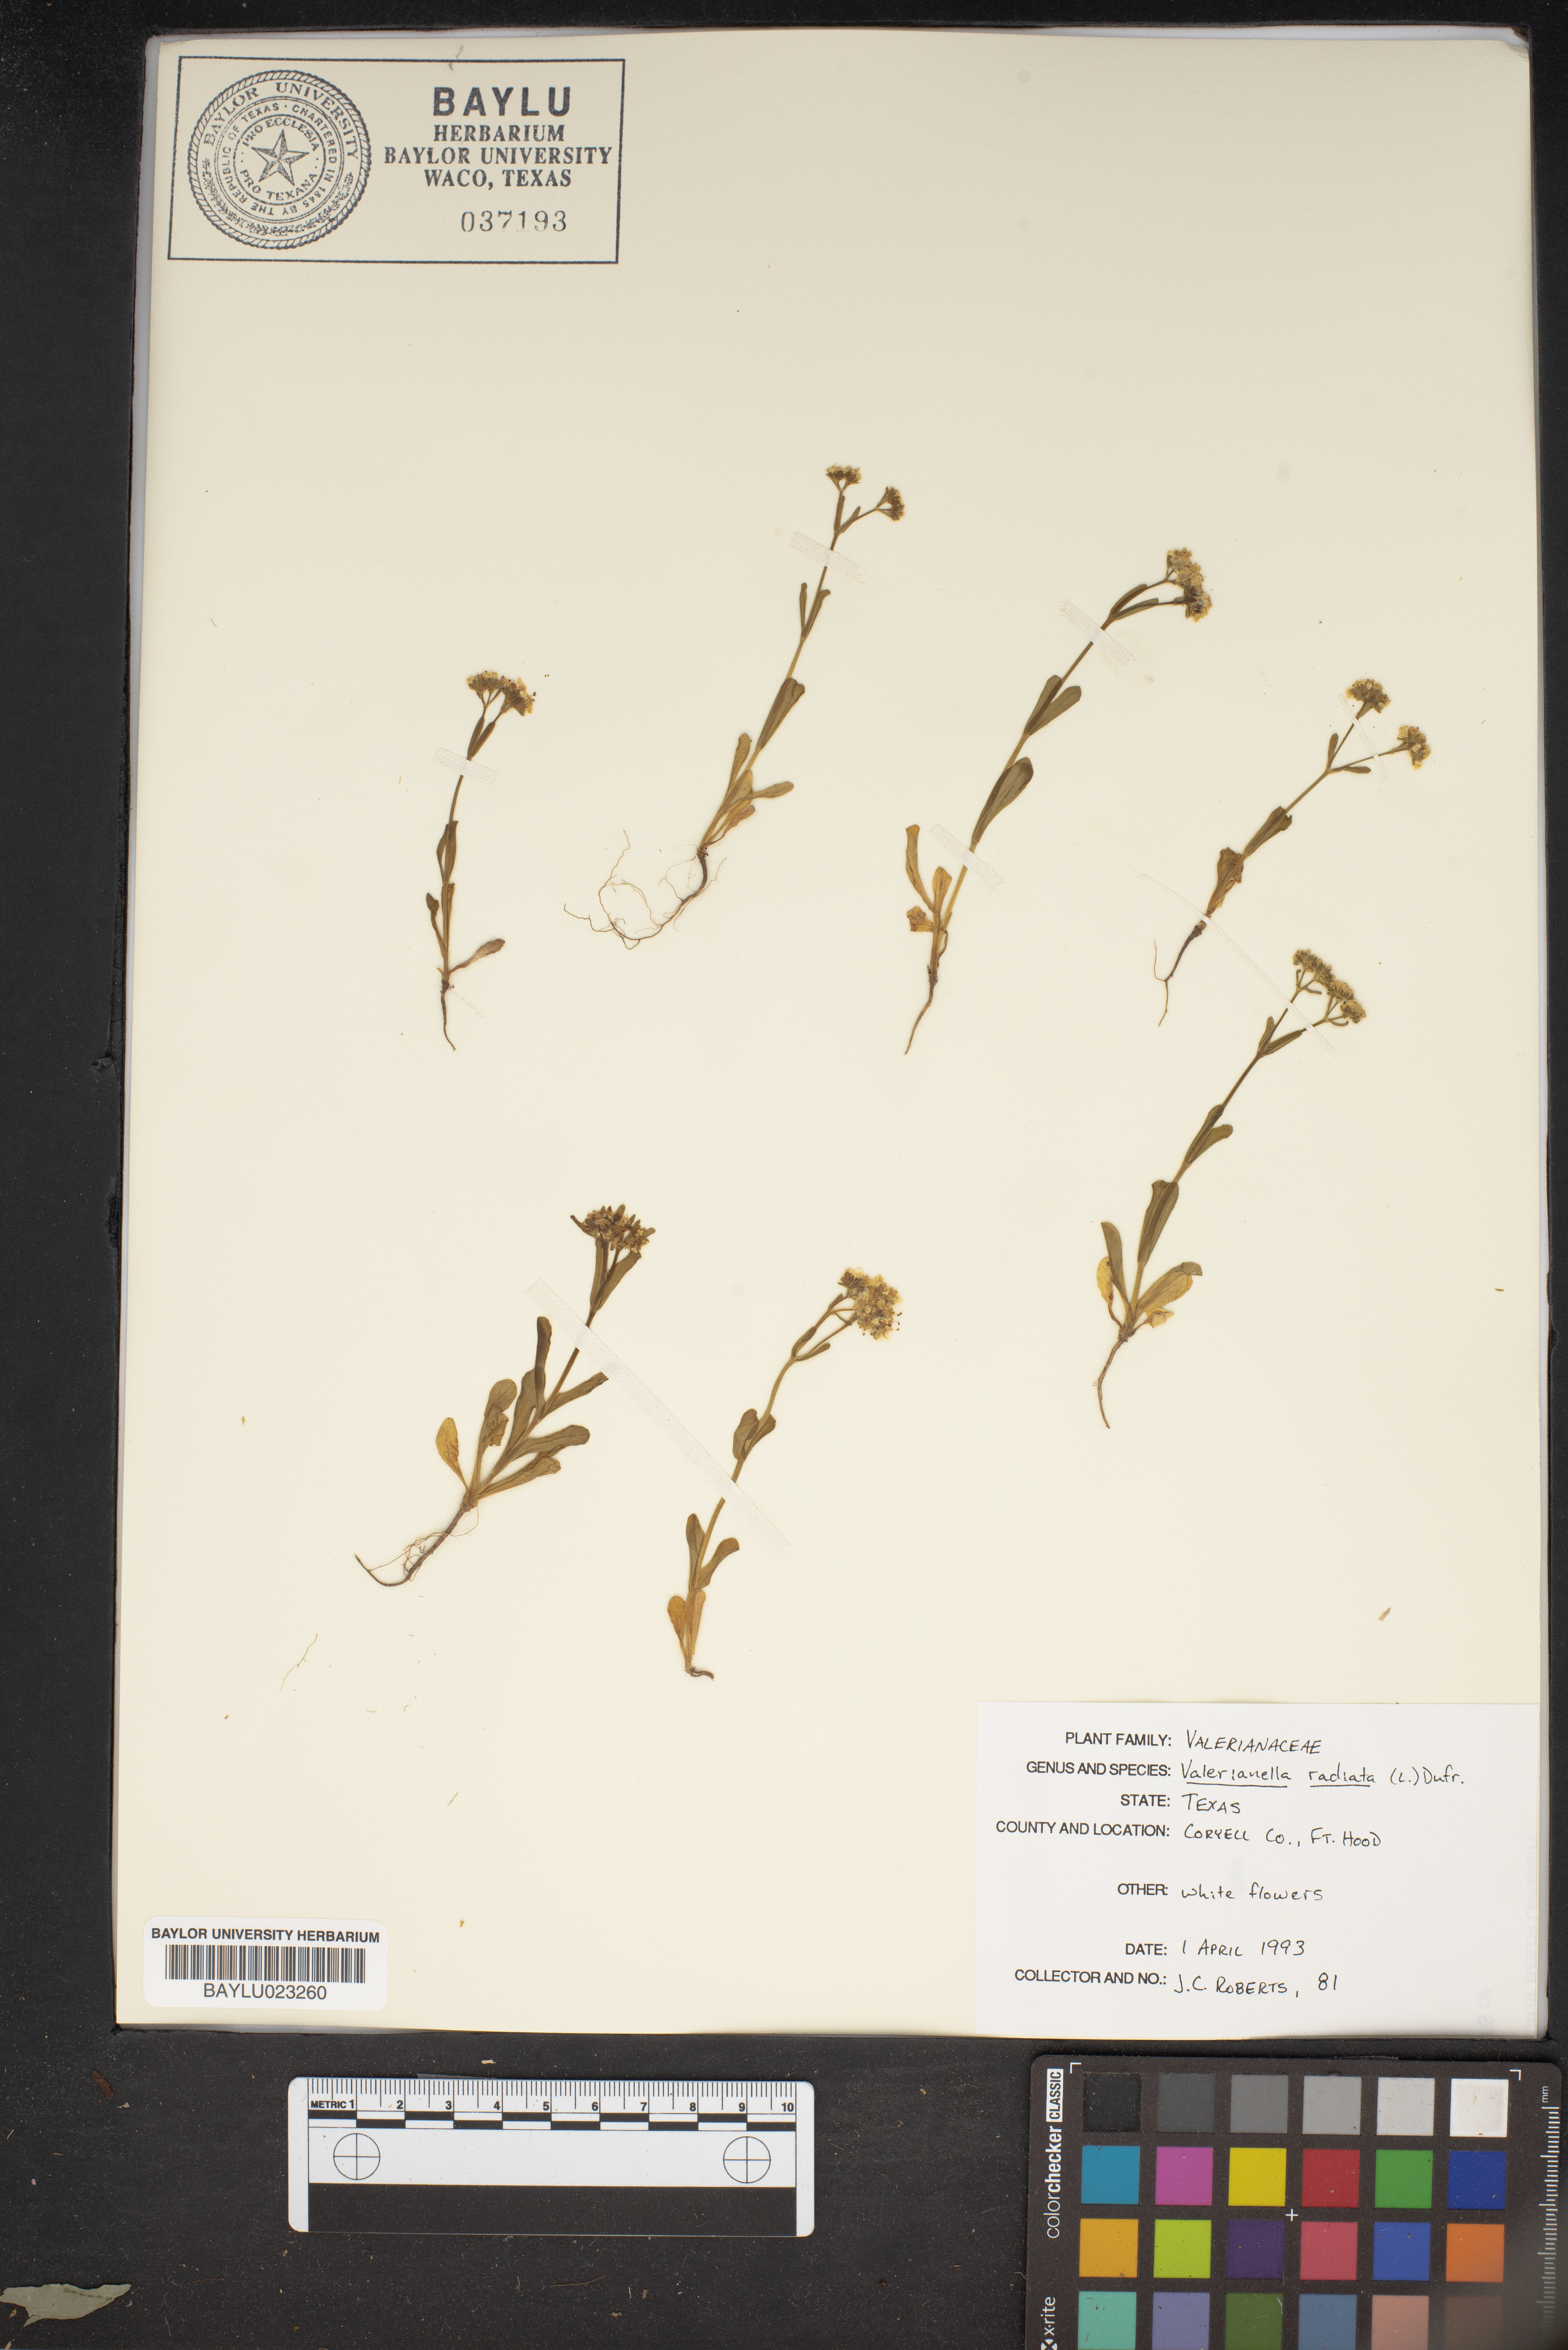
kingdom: Plantae
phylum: Tracheophyta
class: Magnoliopsida
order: Dipsacales
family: Caprifoliaceae
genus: Valerianella
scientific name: Valerianella radiata
